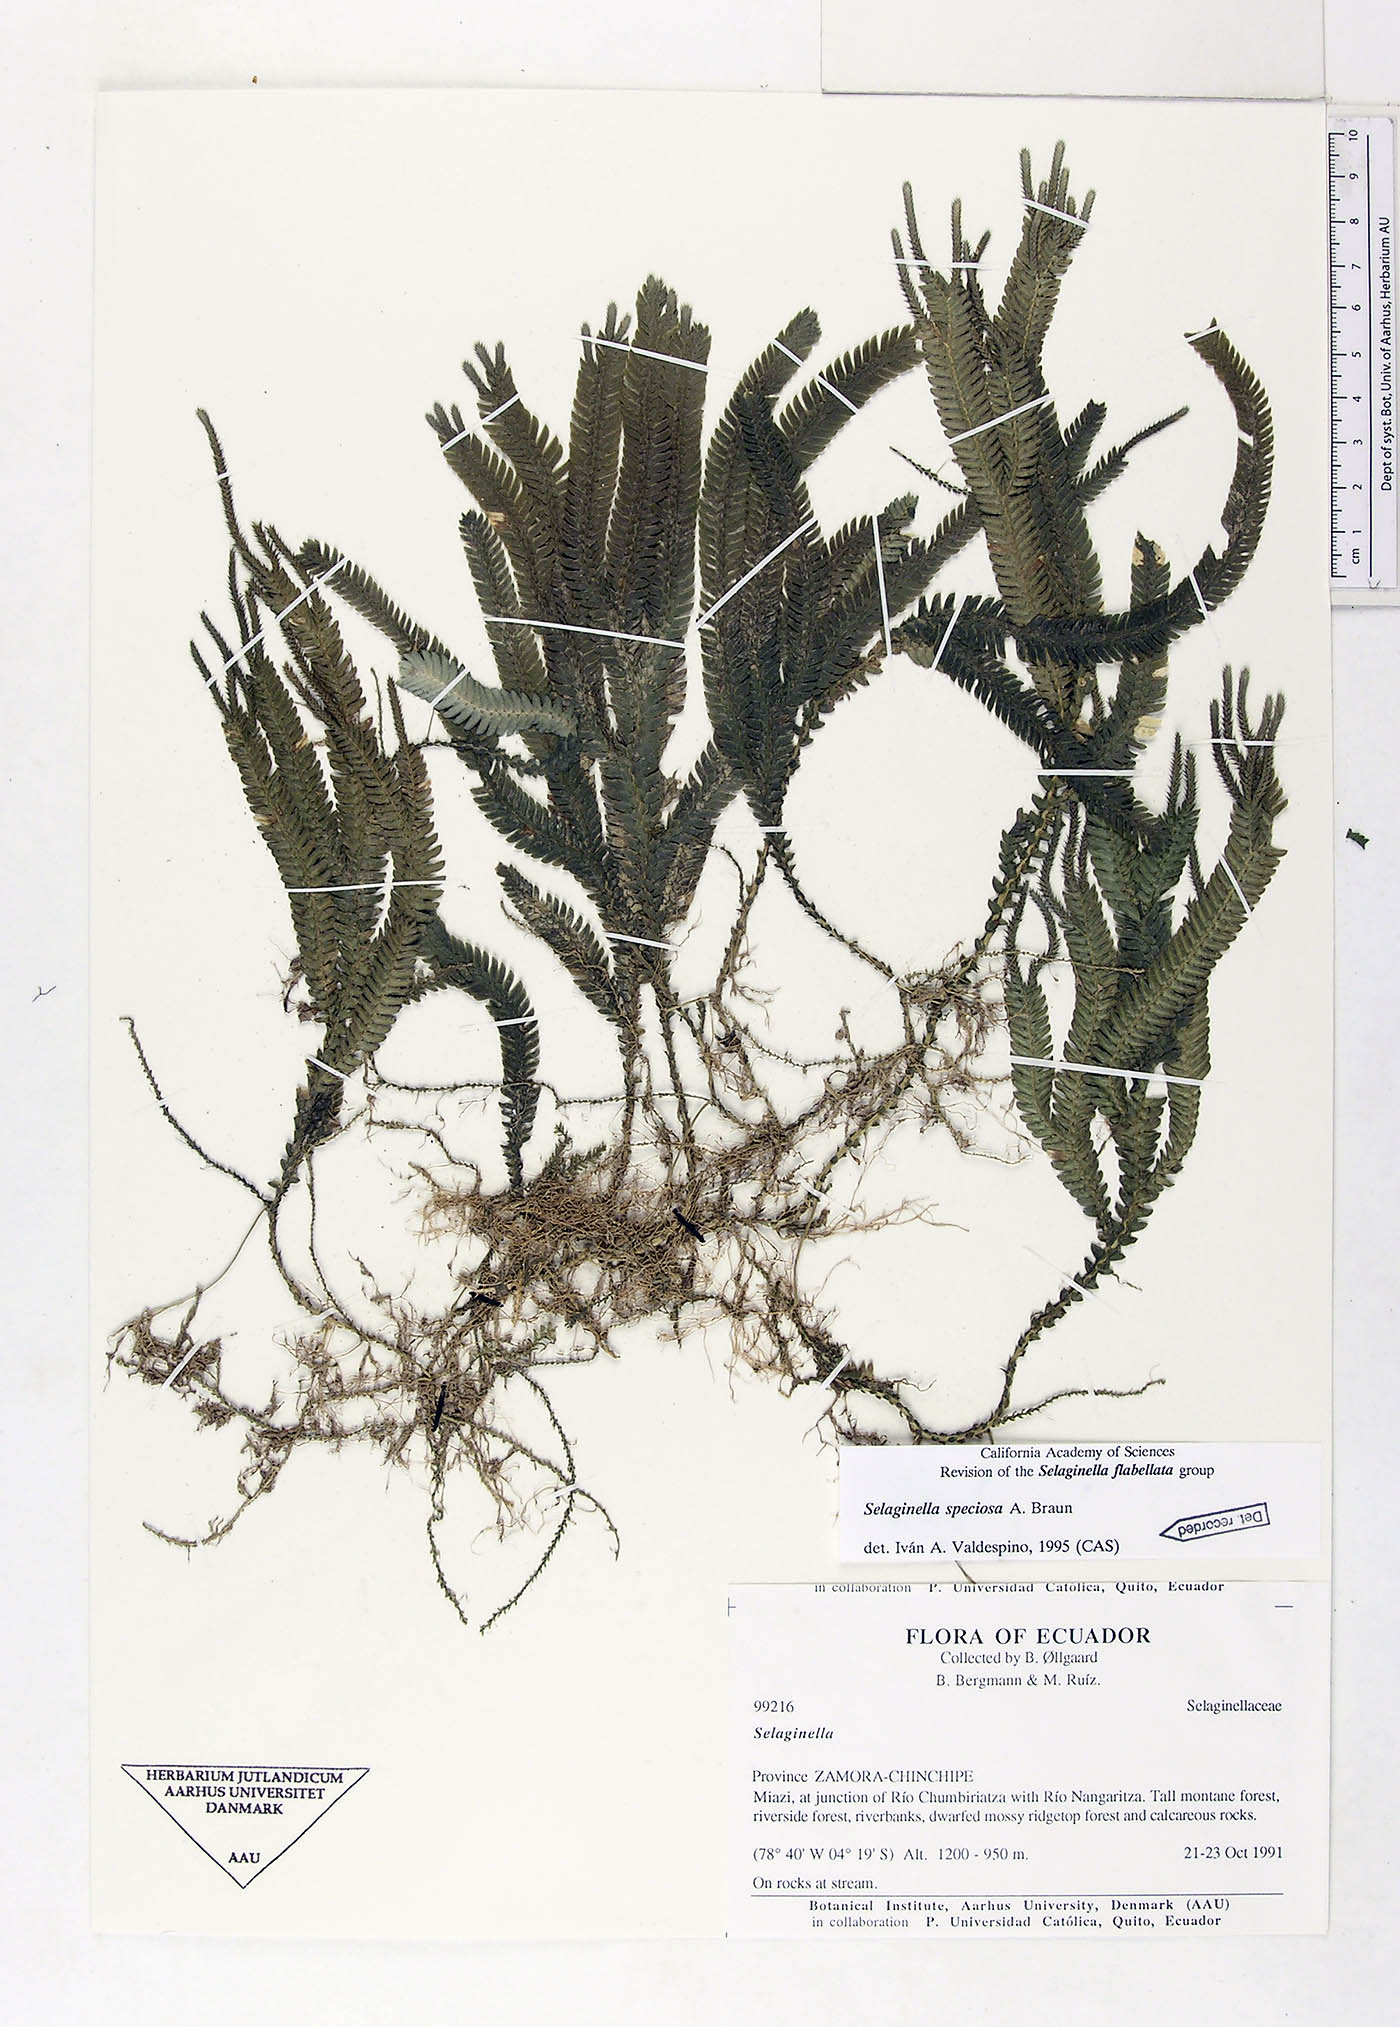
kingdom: Plantae
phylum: Tracheophyta
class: Lycopodiopsida
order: Selaginellales
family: Selaginellaceae
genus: Selaginella
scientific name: Selaginella speciosa
